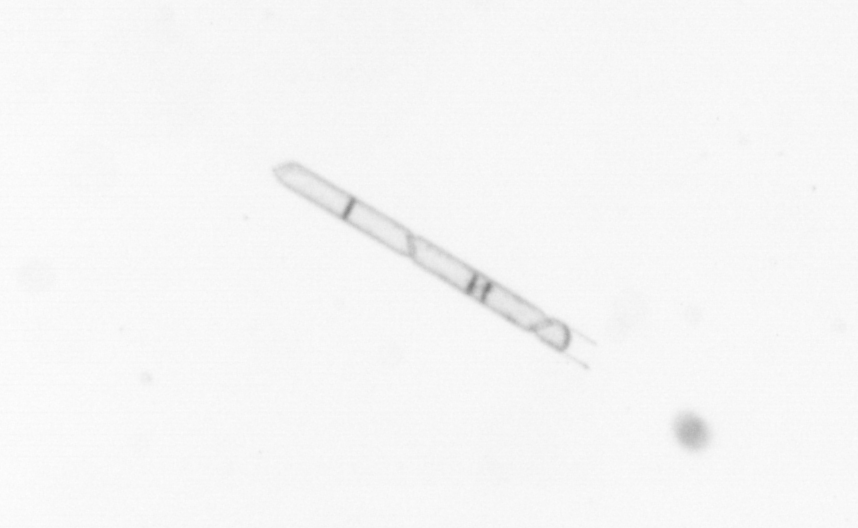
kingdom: Chromista
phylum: Ochrophyta
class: Bacillariophyceae
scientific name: Bacillariophyceae
